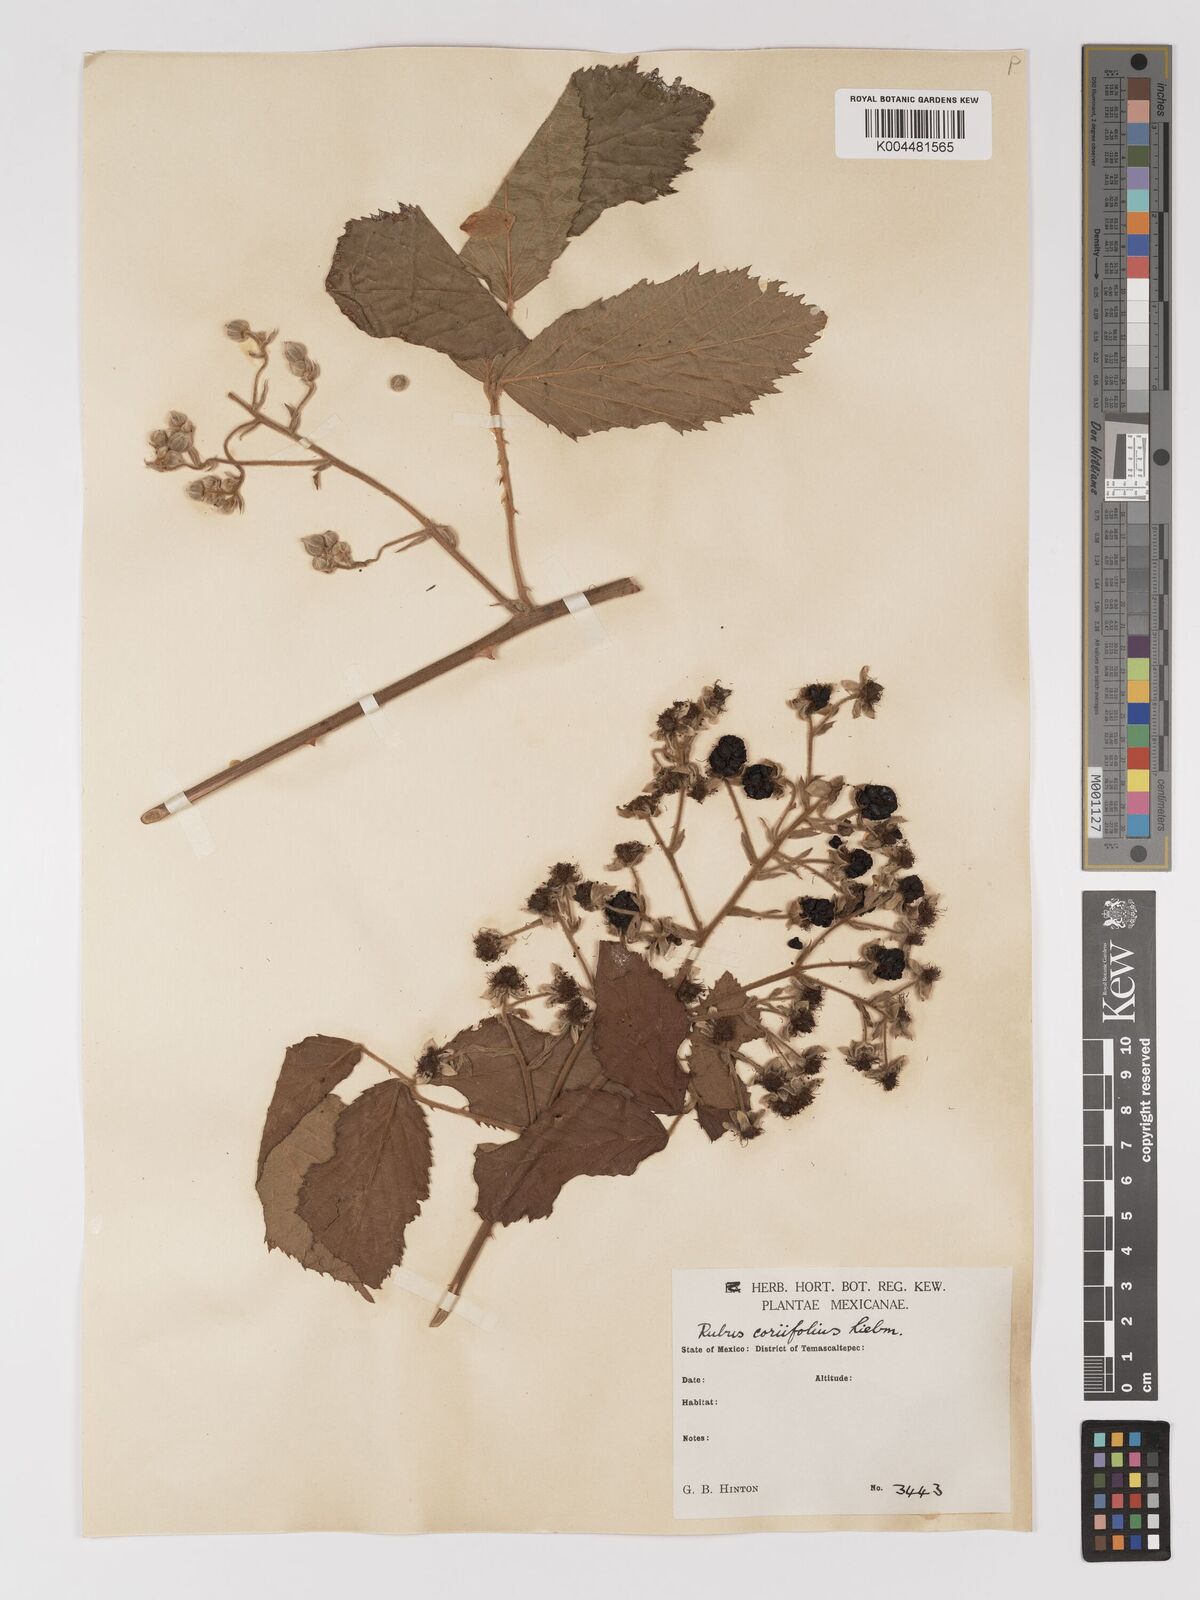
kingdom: Plantae
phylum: Tracheophyta
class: Magnoliopsida
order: Rosales
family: Rosaceae
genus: Rubus
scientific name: Rubus coriifolius
